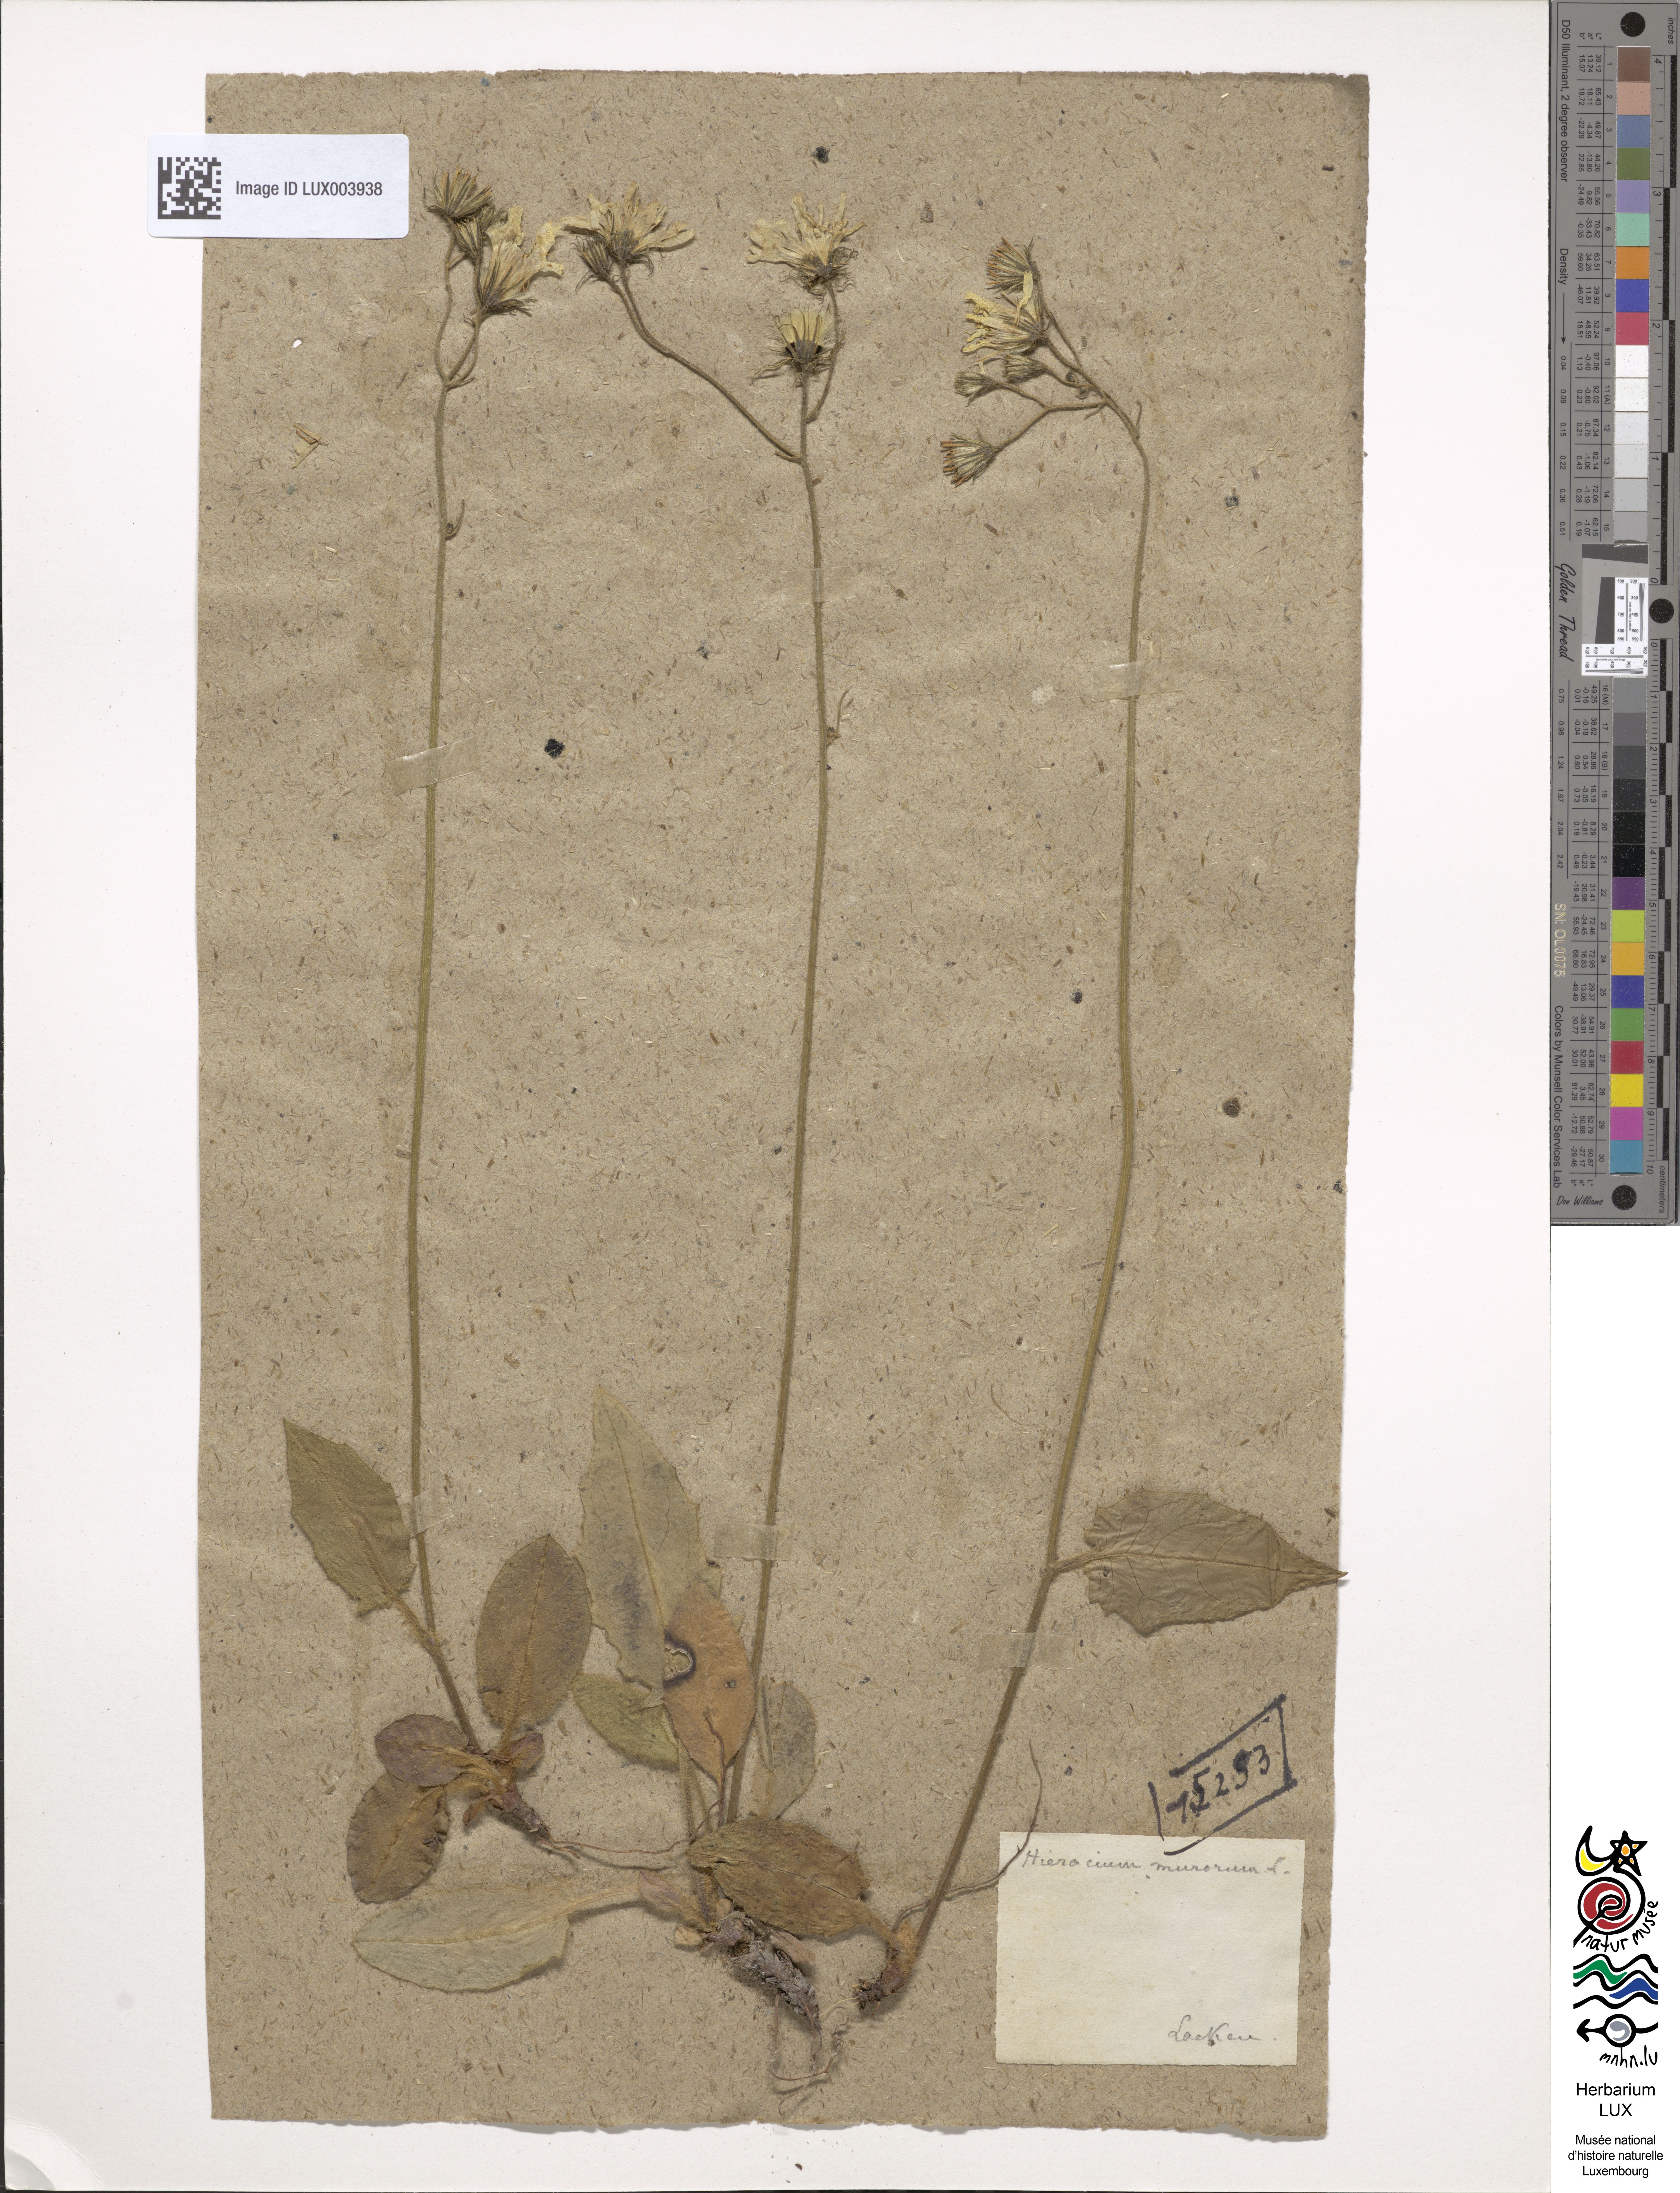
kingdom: Plantae
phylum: Tracheophyta
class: Magnoliopsida
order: Asterales
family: Asteraceae
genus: Hieracium
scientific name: Hieracium murorum
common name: Wall hawkweed
